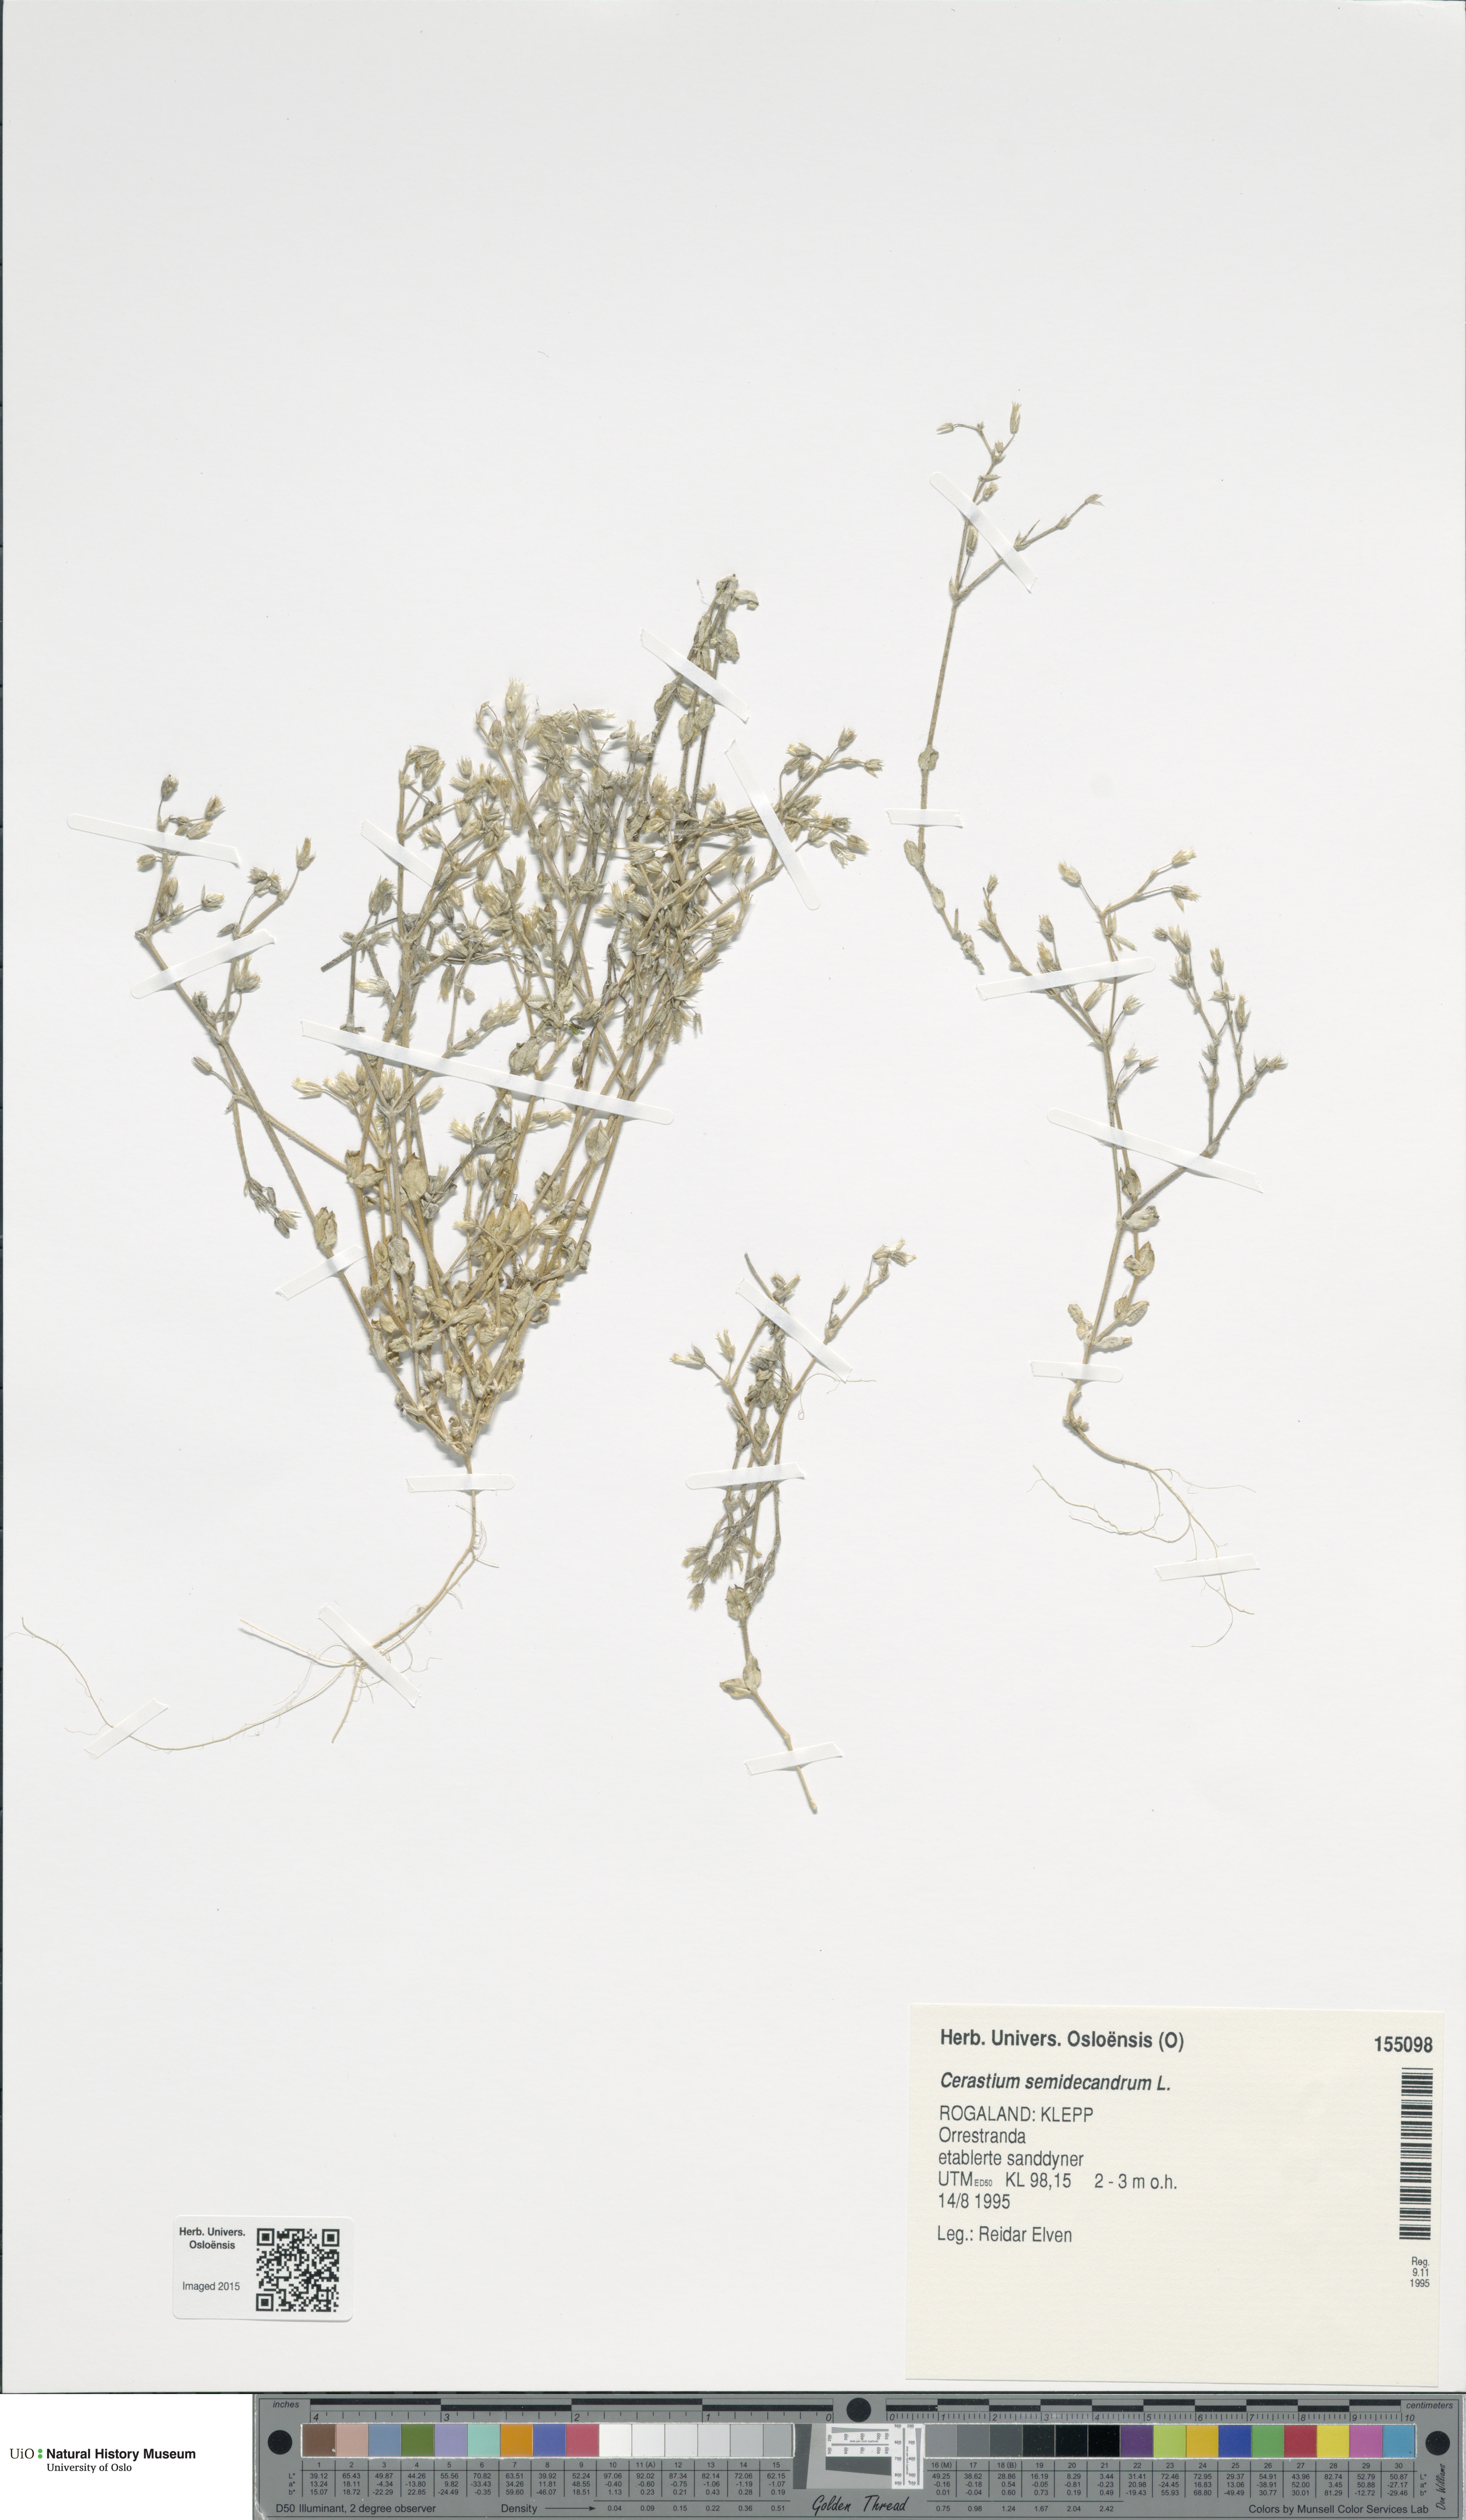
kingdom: Plantae
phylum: Tracheophyta
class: Magnoliopsida
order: Caryophyllales
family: Caryophyllaceae
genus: Cerastium
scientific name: Cerastium semidecandrum
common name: Little mouse-ear
